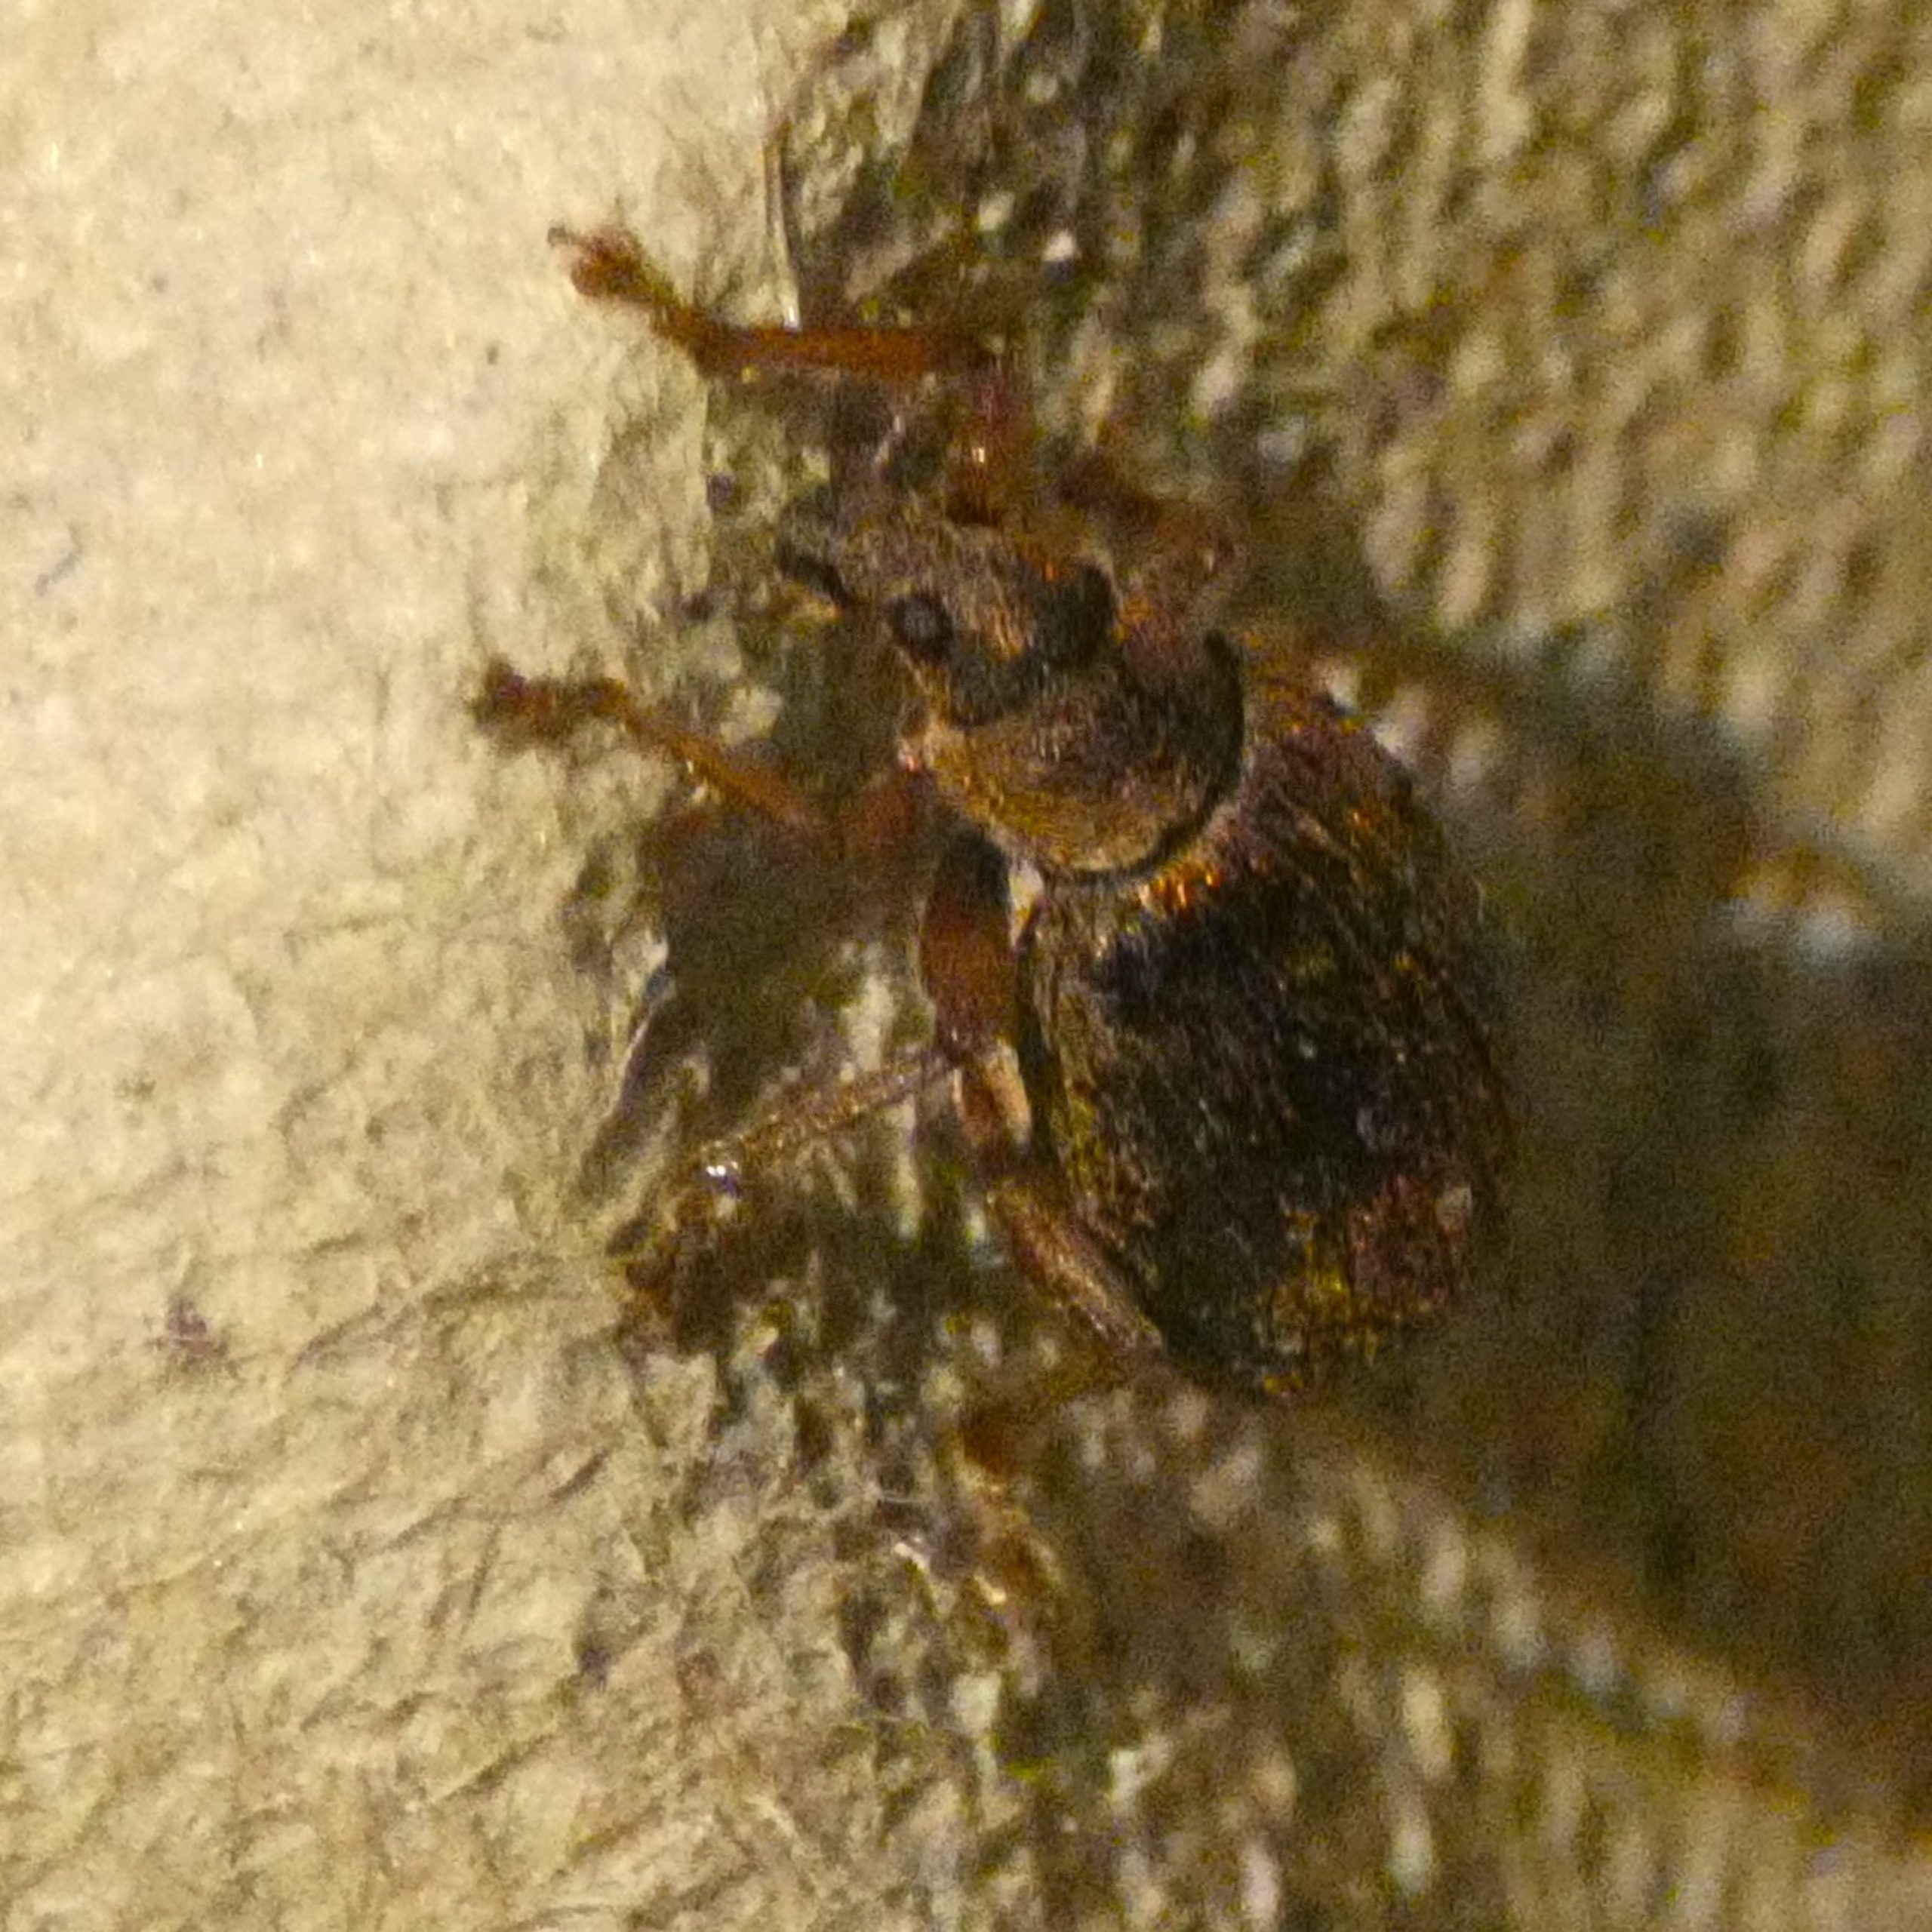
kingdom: Animalia
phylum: Arthropoda
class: Insecta
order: Coleoptera
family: Curculionidae
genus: Polydrusus
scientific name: Polydrusus mollis
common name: Blodsnudebille
